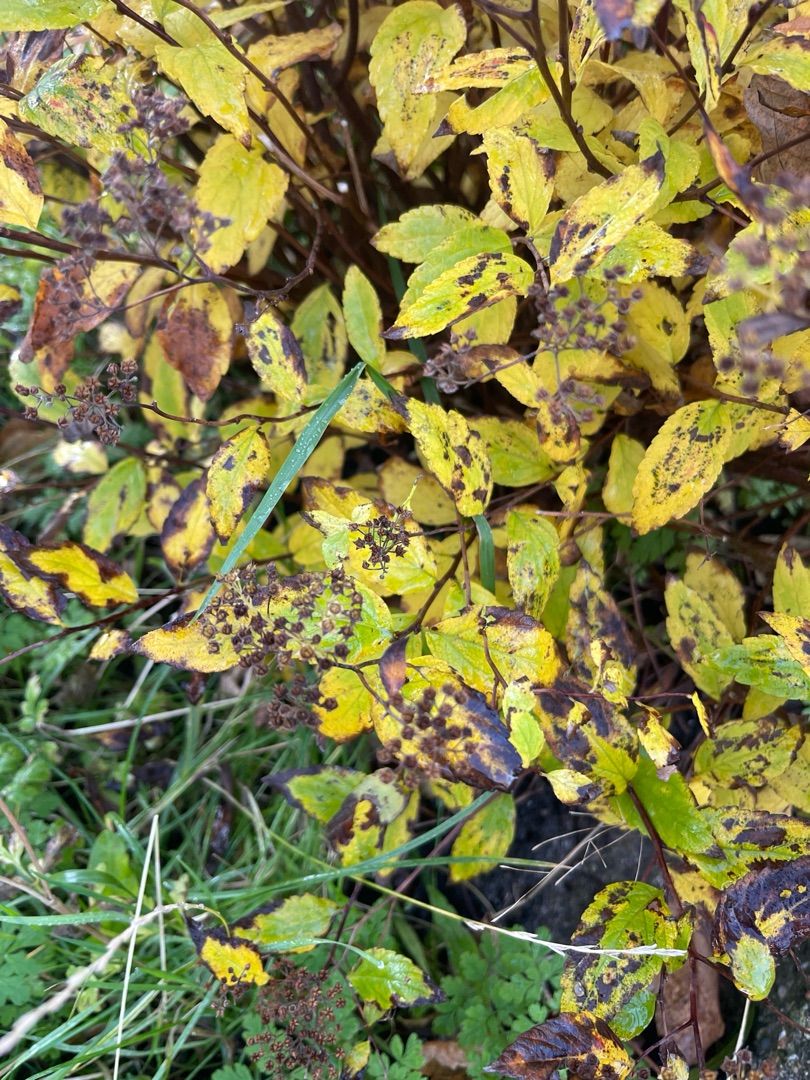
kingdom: Plantae
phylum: Tracheophyta
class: Magnoliopsida
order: Rosales
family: Rosaceae
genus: Spiraea
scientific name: Spiraea japonica
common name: Rosen-spiræa
